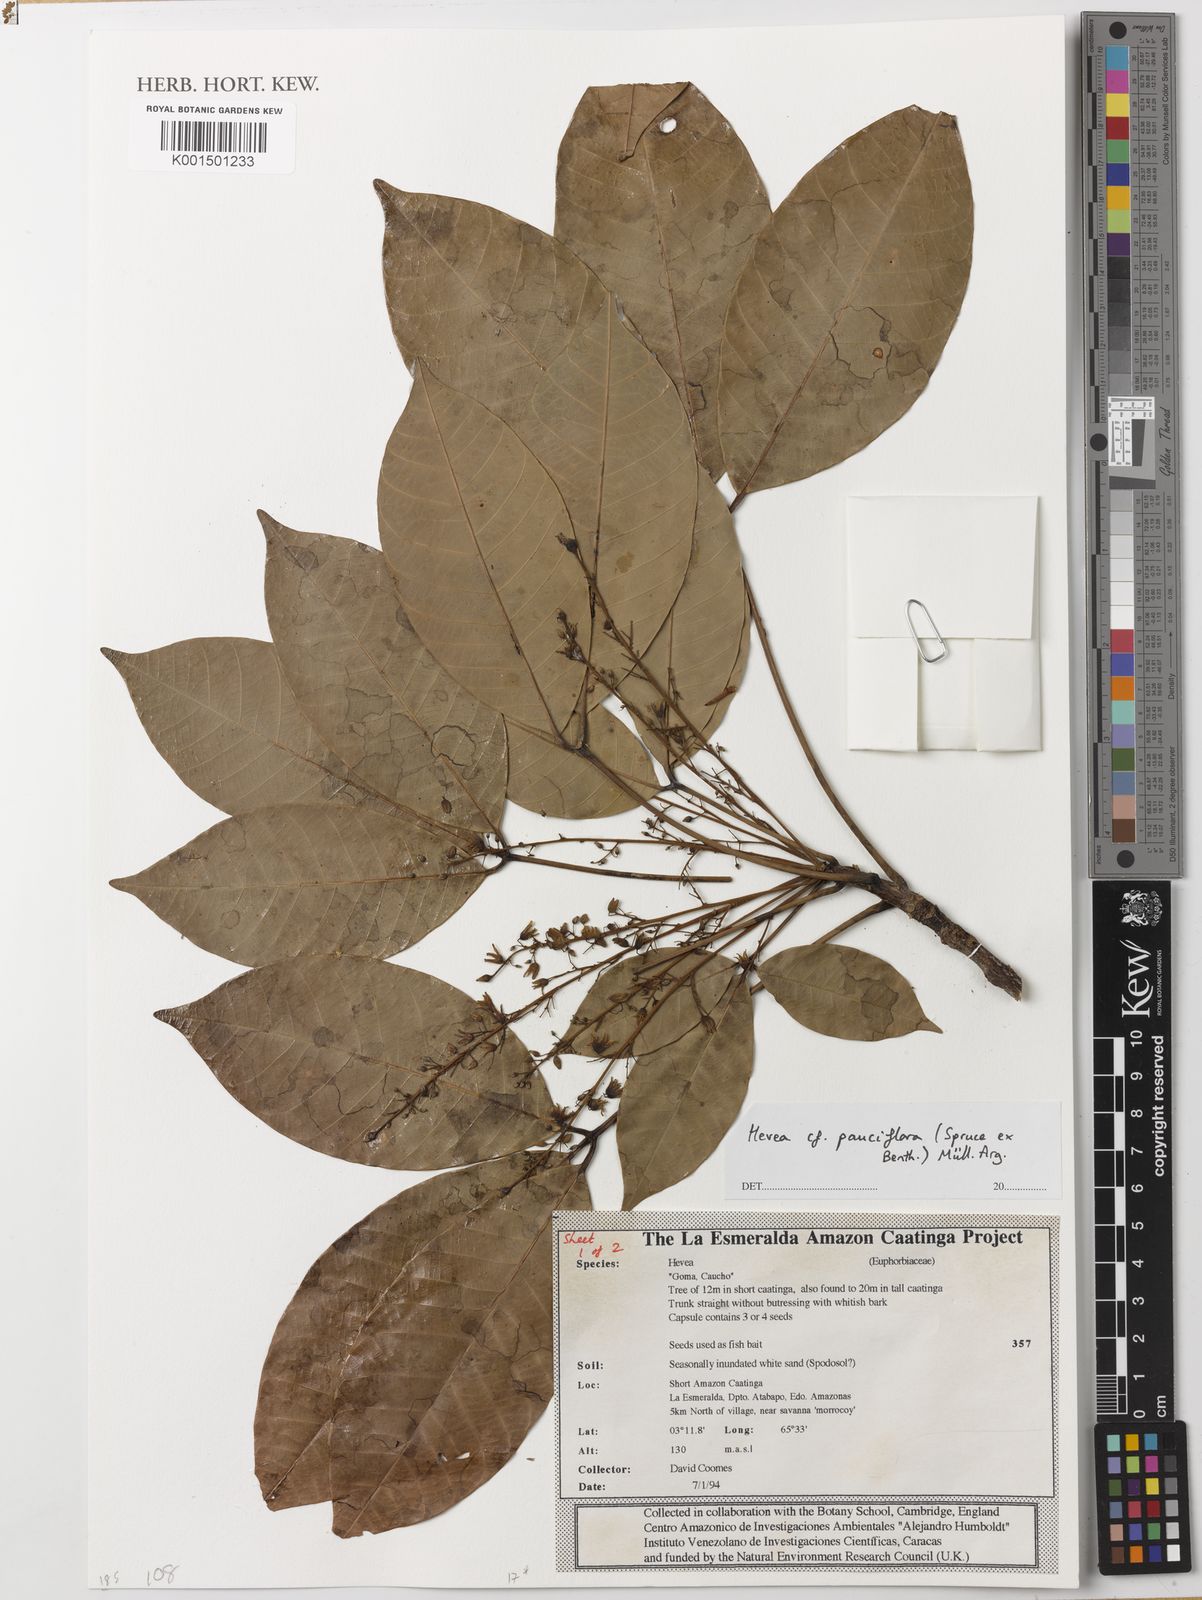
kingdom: Plantae
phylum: Tracheophyta
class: Magnoliopsida
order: Malpighiales
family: Euphorbiaceae
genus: Hevea
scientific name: Hevea pauciflora
